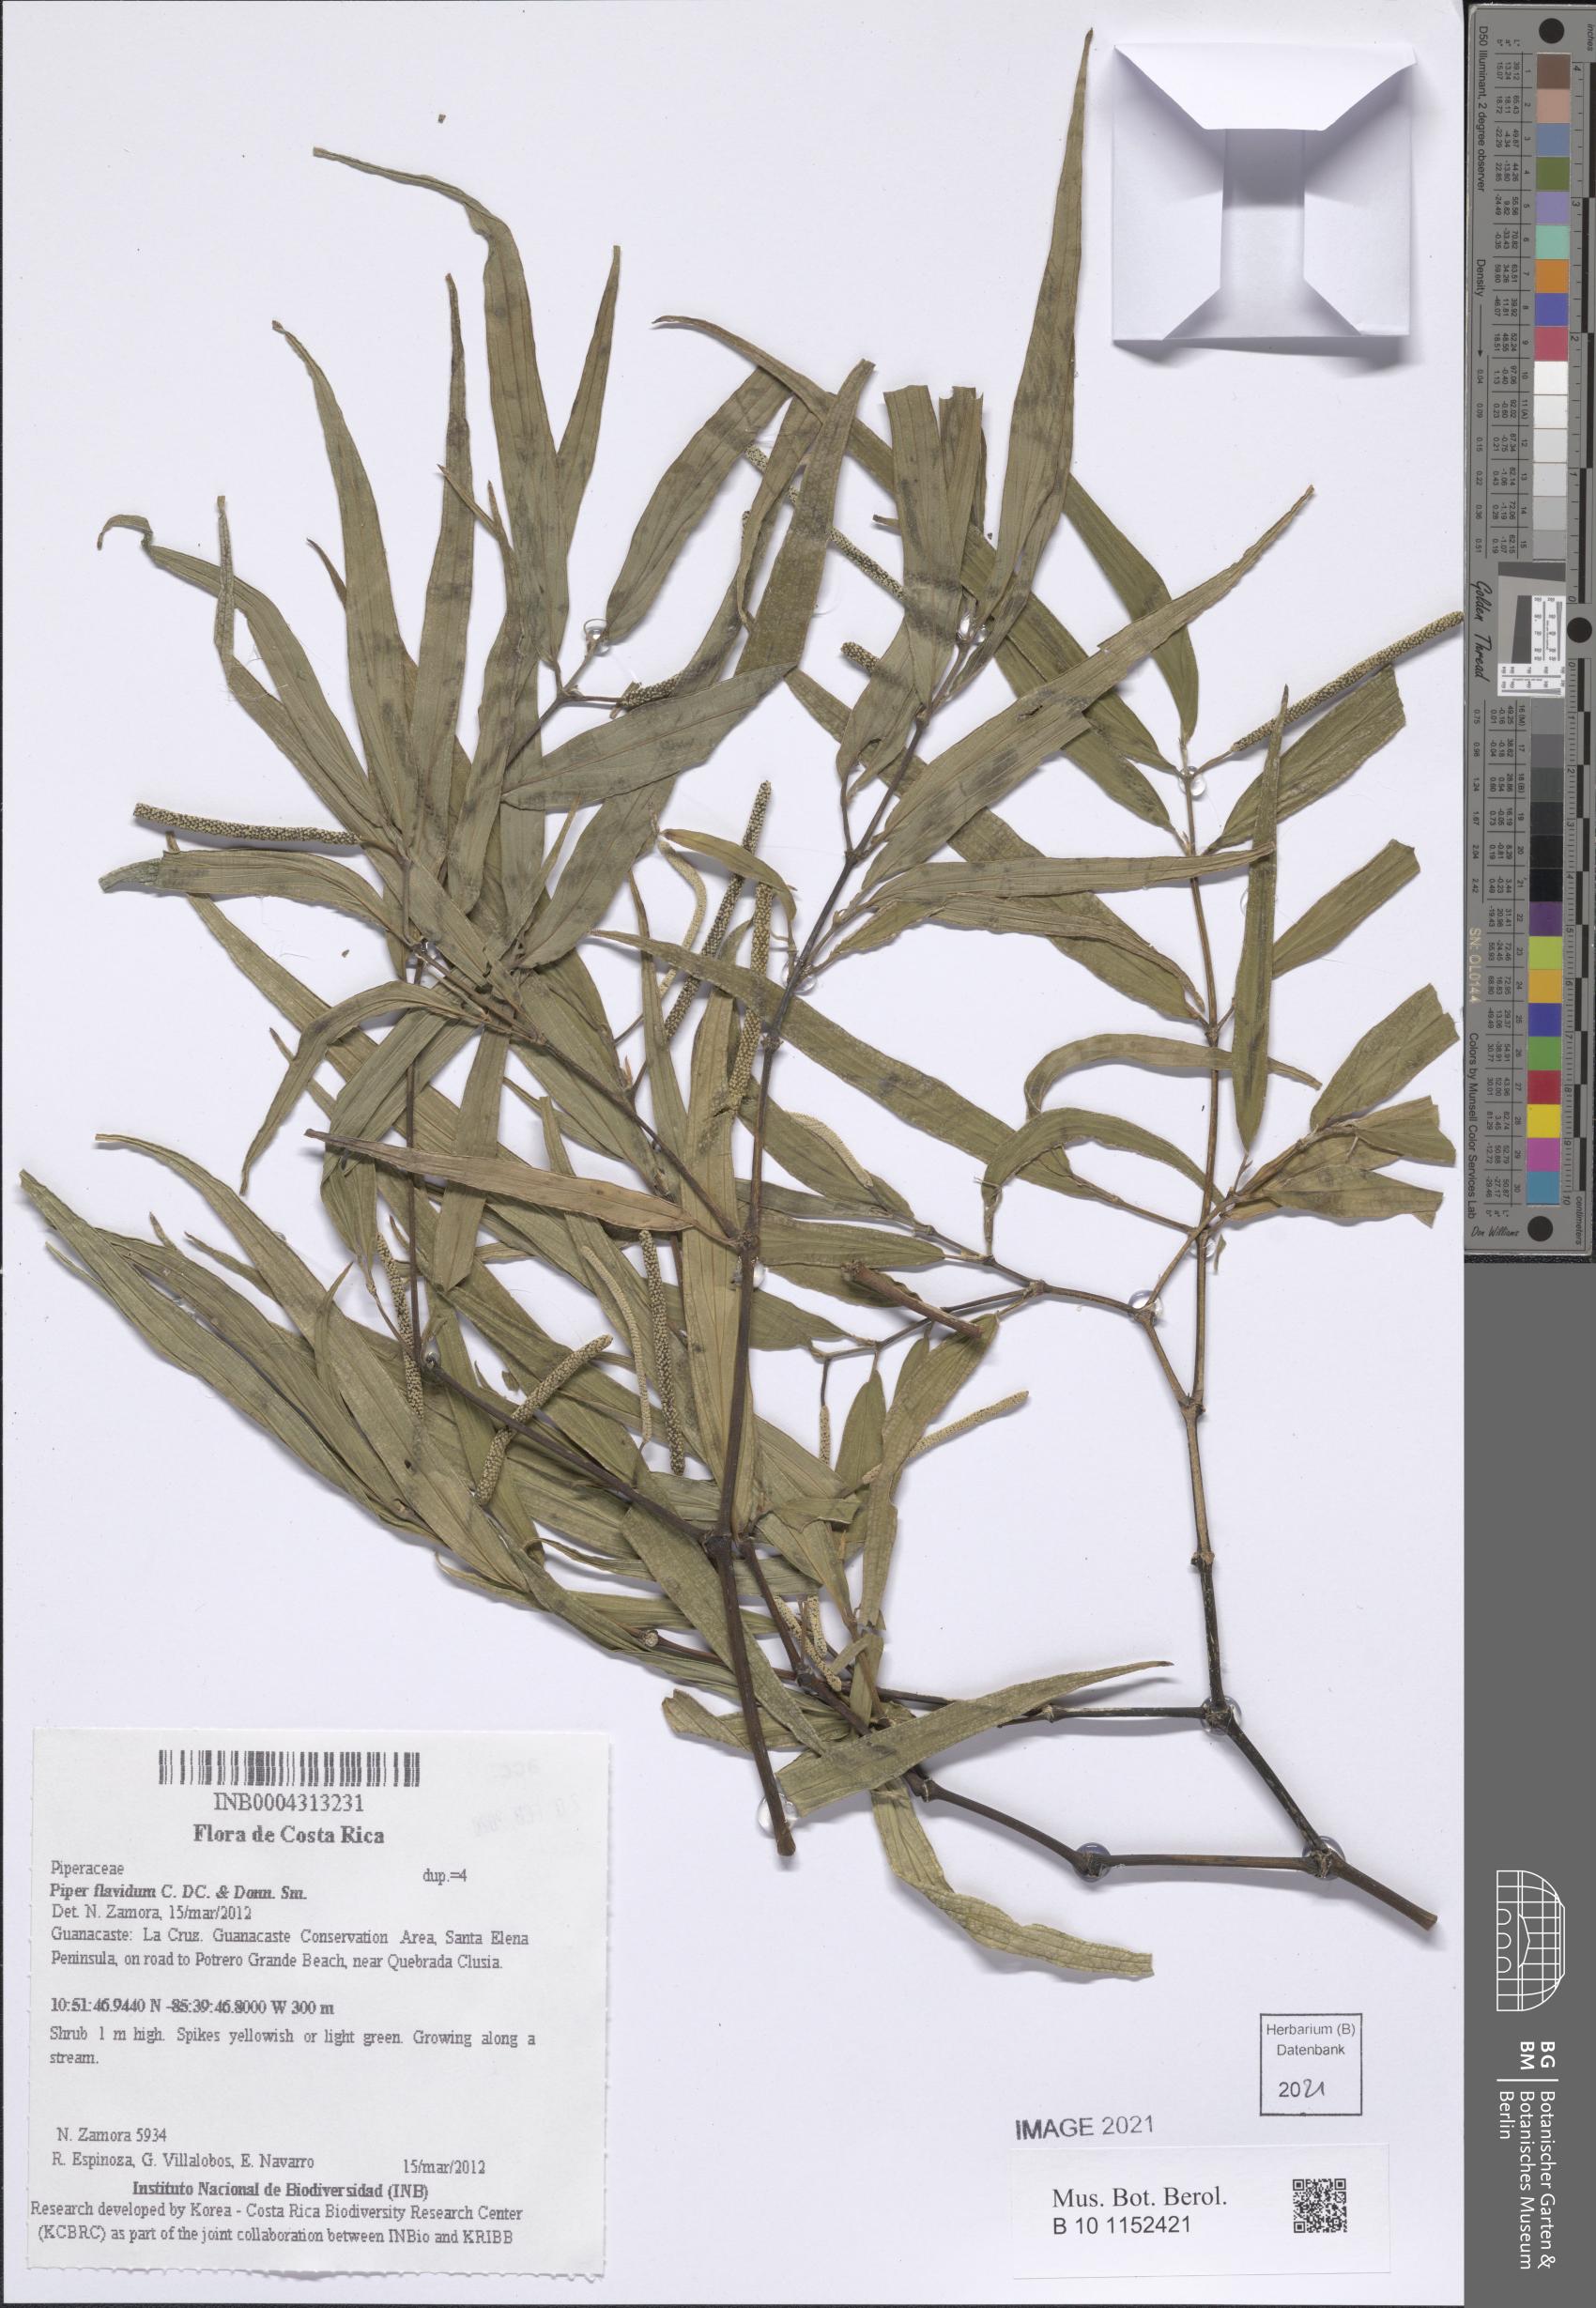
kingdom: Plantae
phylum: Tracheophyta
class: Magnoliopsida
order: Piperales
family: Piperaceae
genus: Piper
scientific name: Piper flavidum
